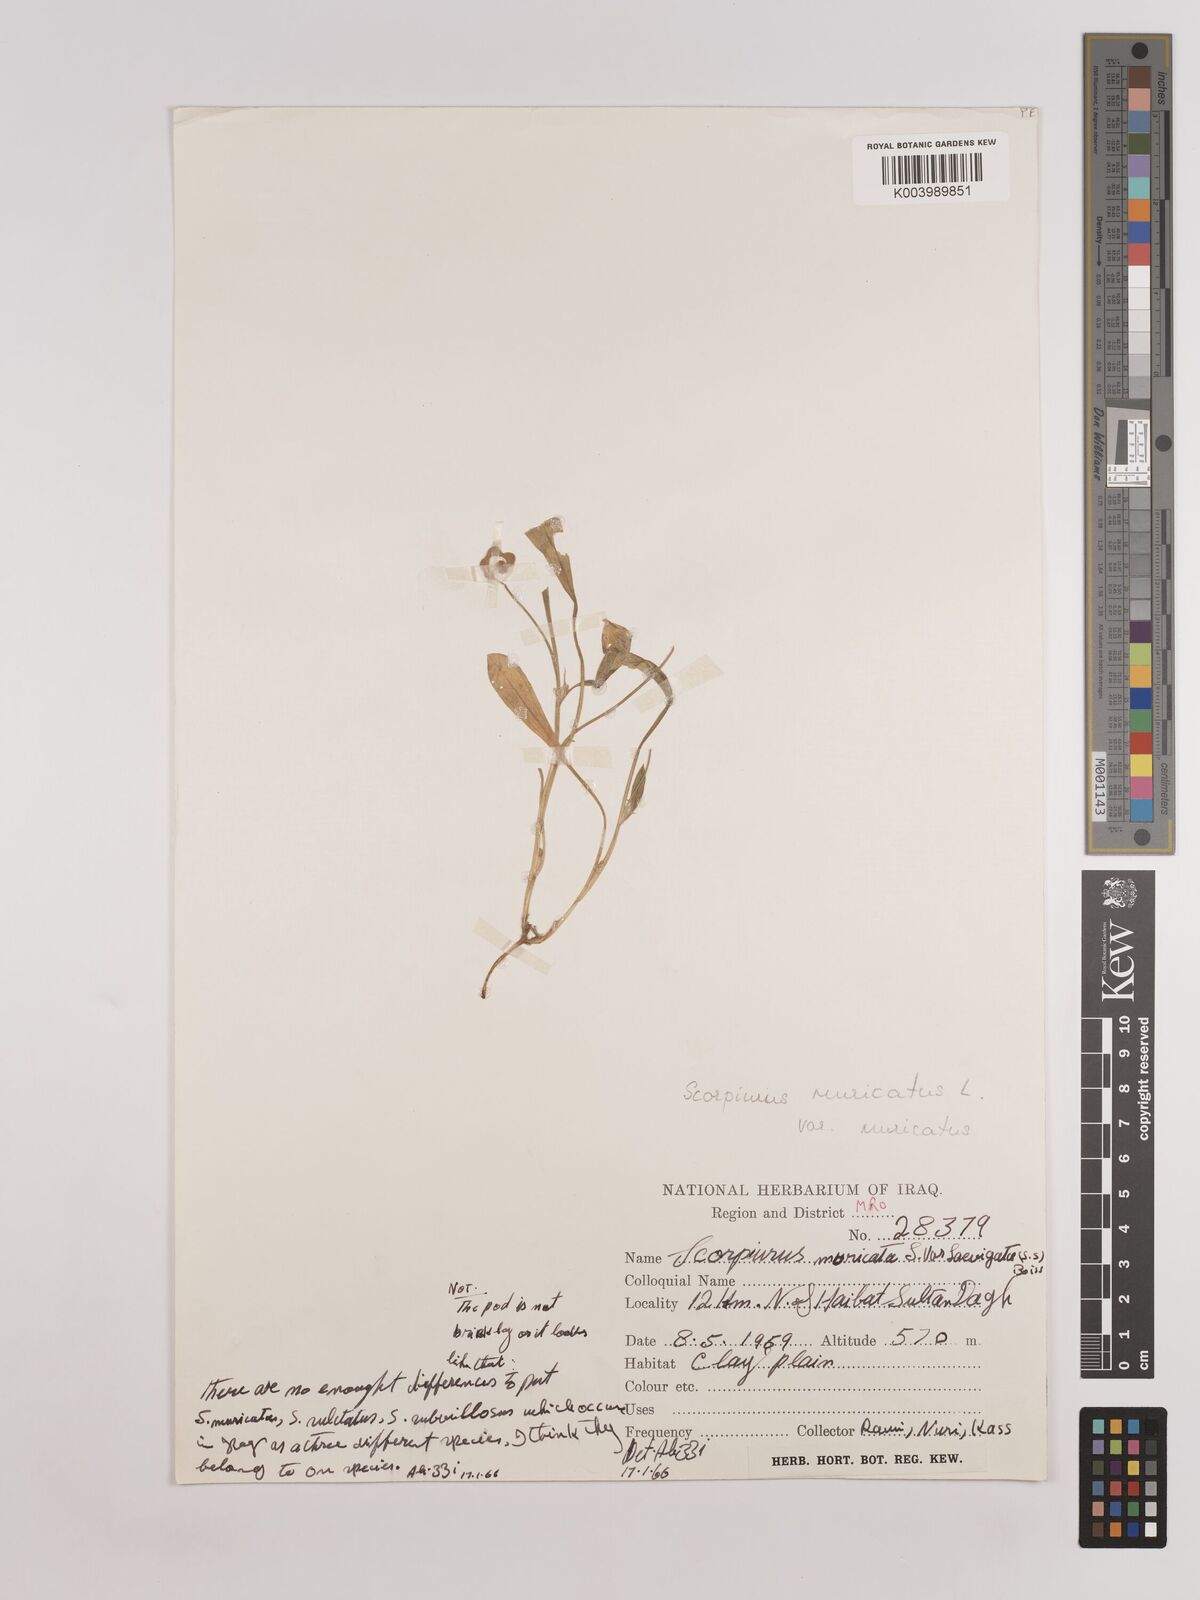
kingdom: Plantae
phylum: Tracheophyta
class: Magnoliopsida
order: Fabales
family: Fabaceae
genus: Scorpiurus
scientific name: Scorpiurus muricatus
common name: Caterpillar-plant
